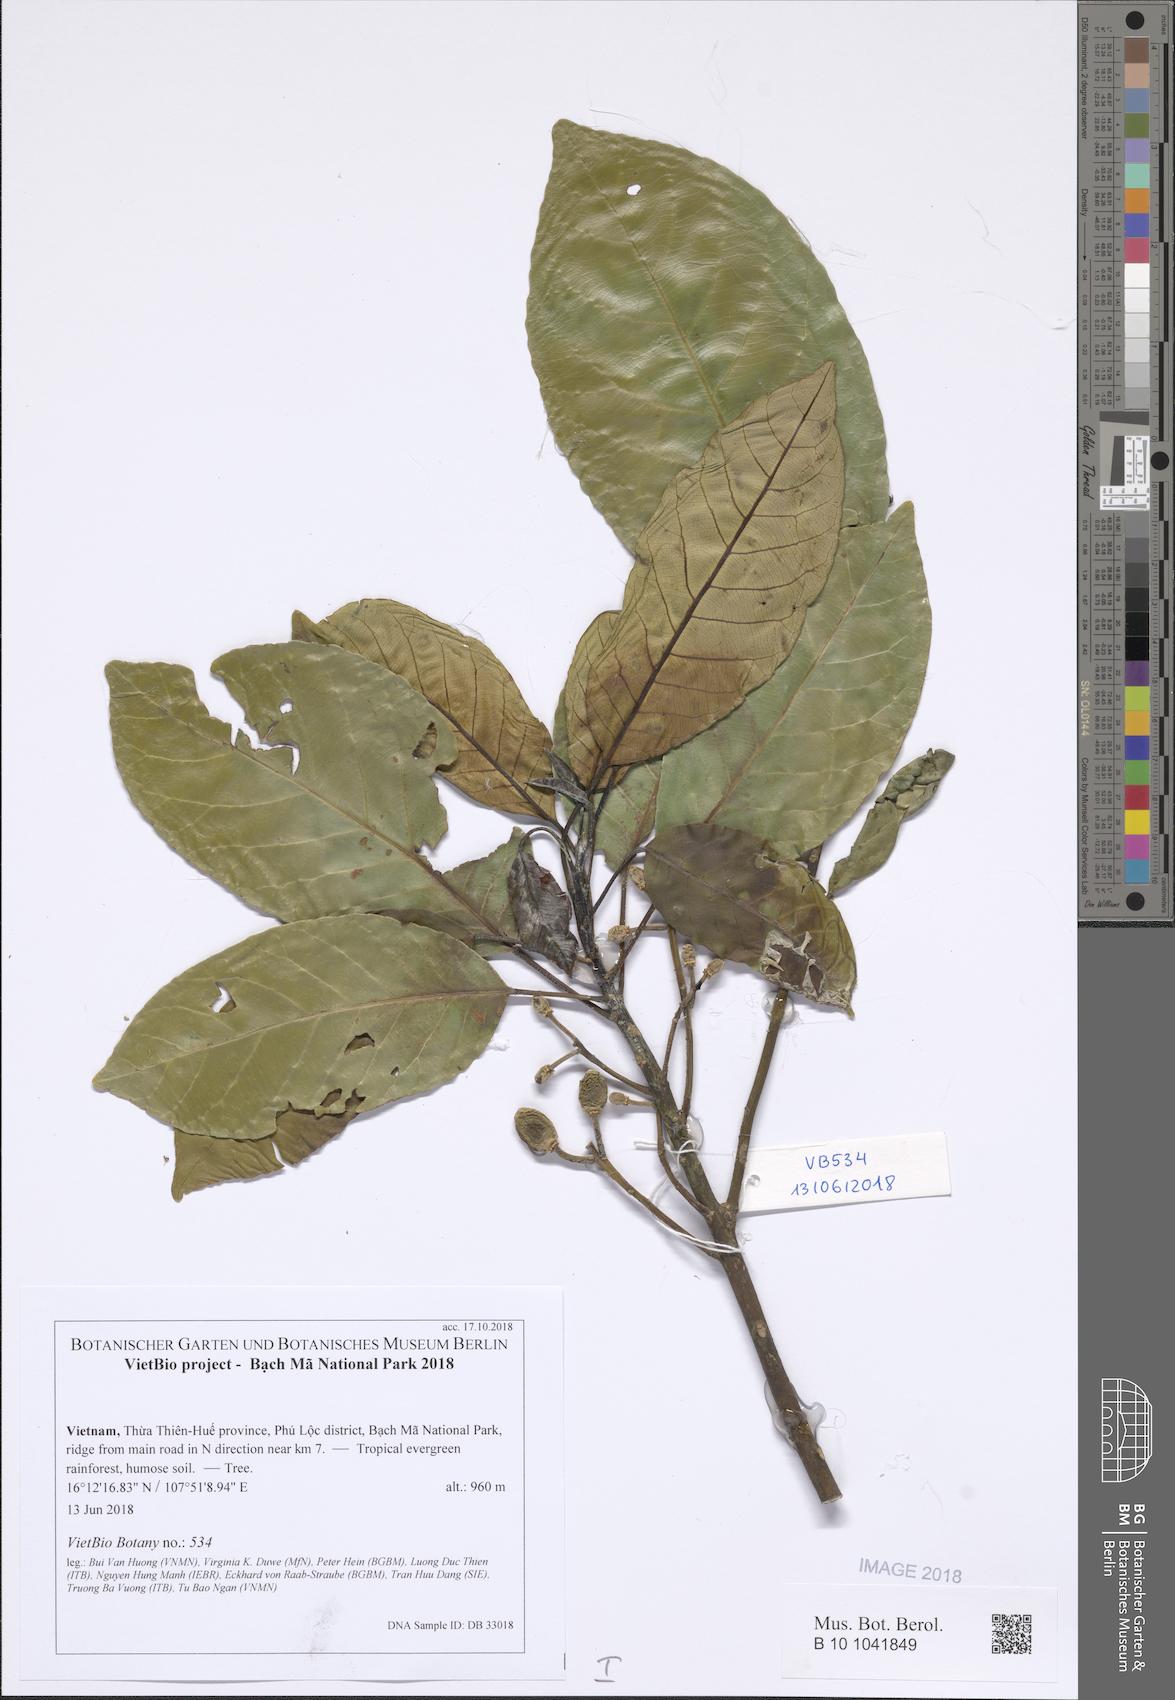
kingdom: Plantae
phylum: Tracheophyta
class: Magnoliopsida
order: Oxalidales
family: Elaeocarpaceae
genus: Elaeocarpus
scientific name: Elaeocarpus lanceifolius
